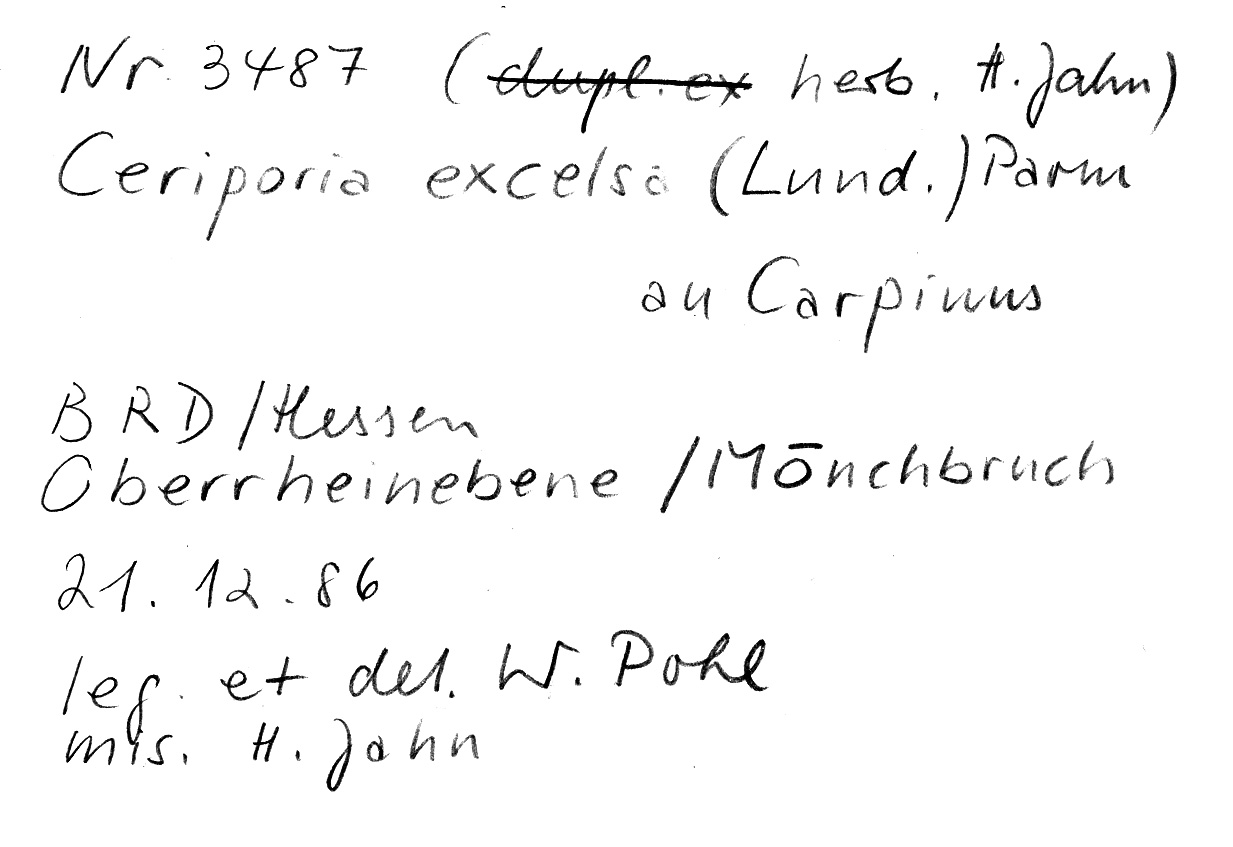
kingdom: Plantae
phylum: Tracheophyta
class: Magnoliopsida
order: Fagales
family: Betulaceae
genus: Carpinus
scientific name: Carpinus
